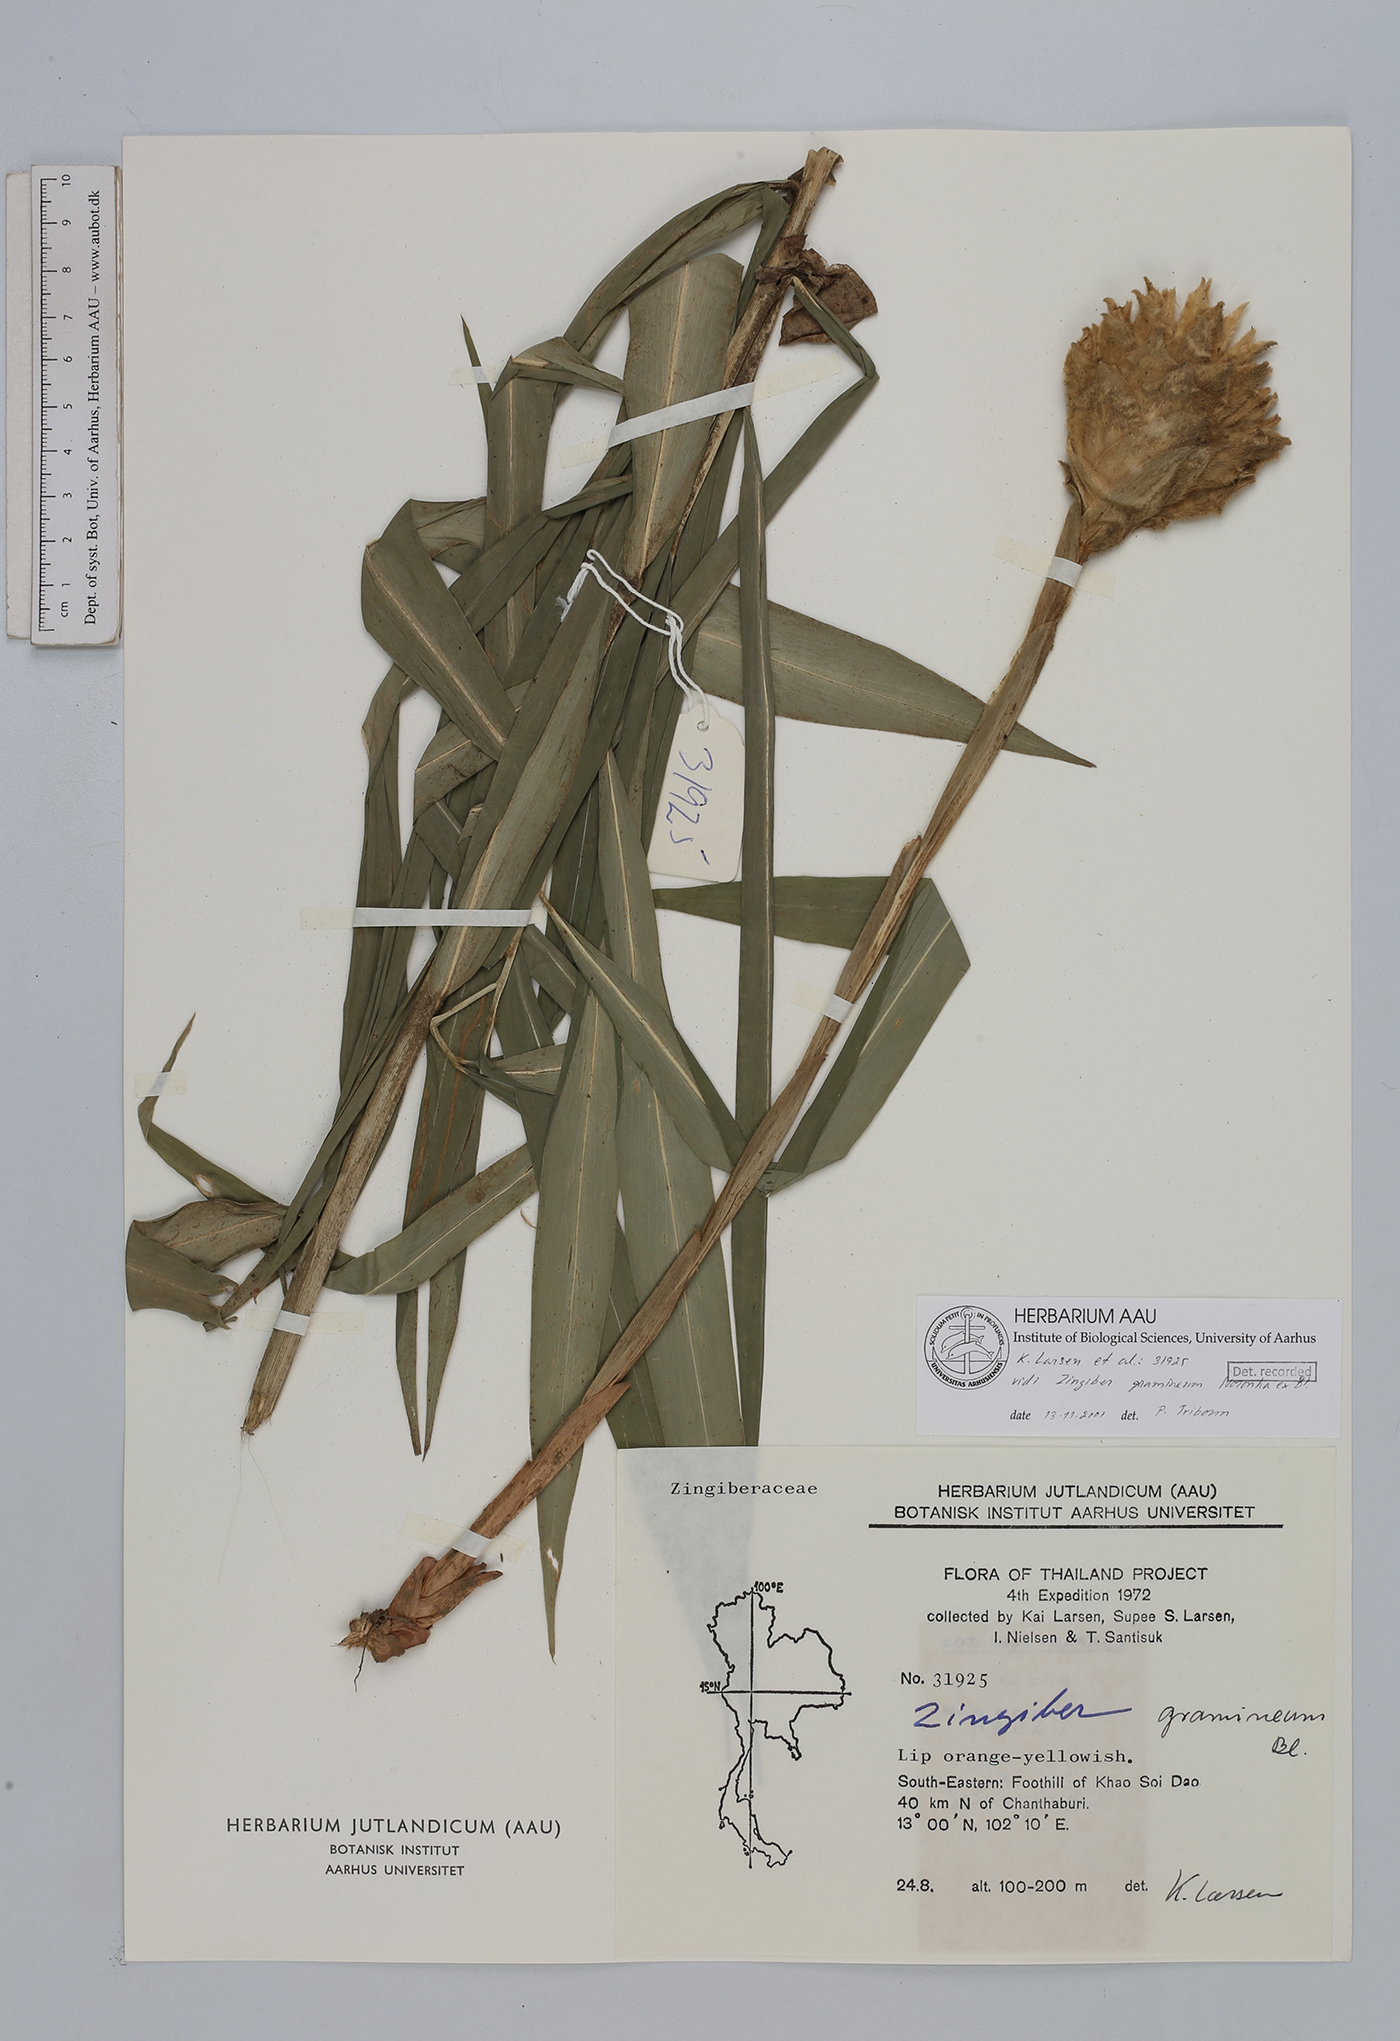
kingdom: Plantae
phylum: Tracheophyta
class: Liliopsida
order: Zingiberales
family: Zingiberaceae
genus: Zingiber
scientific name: Zingiber gramineum
